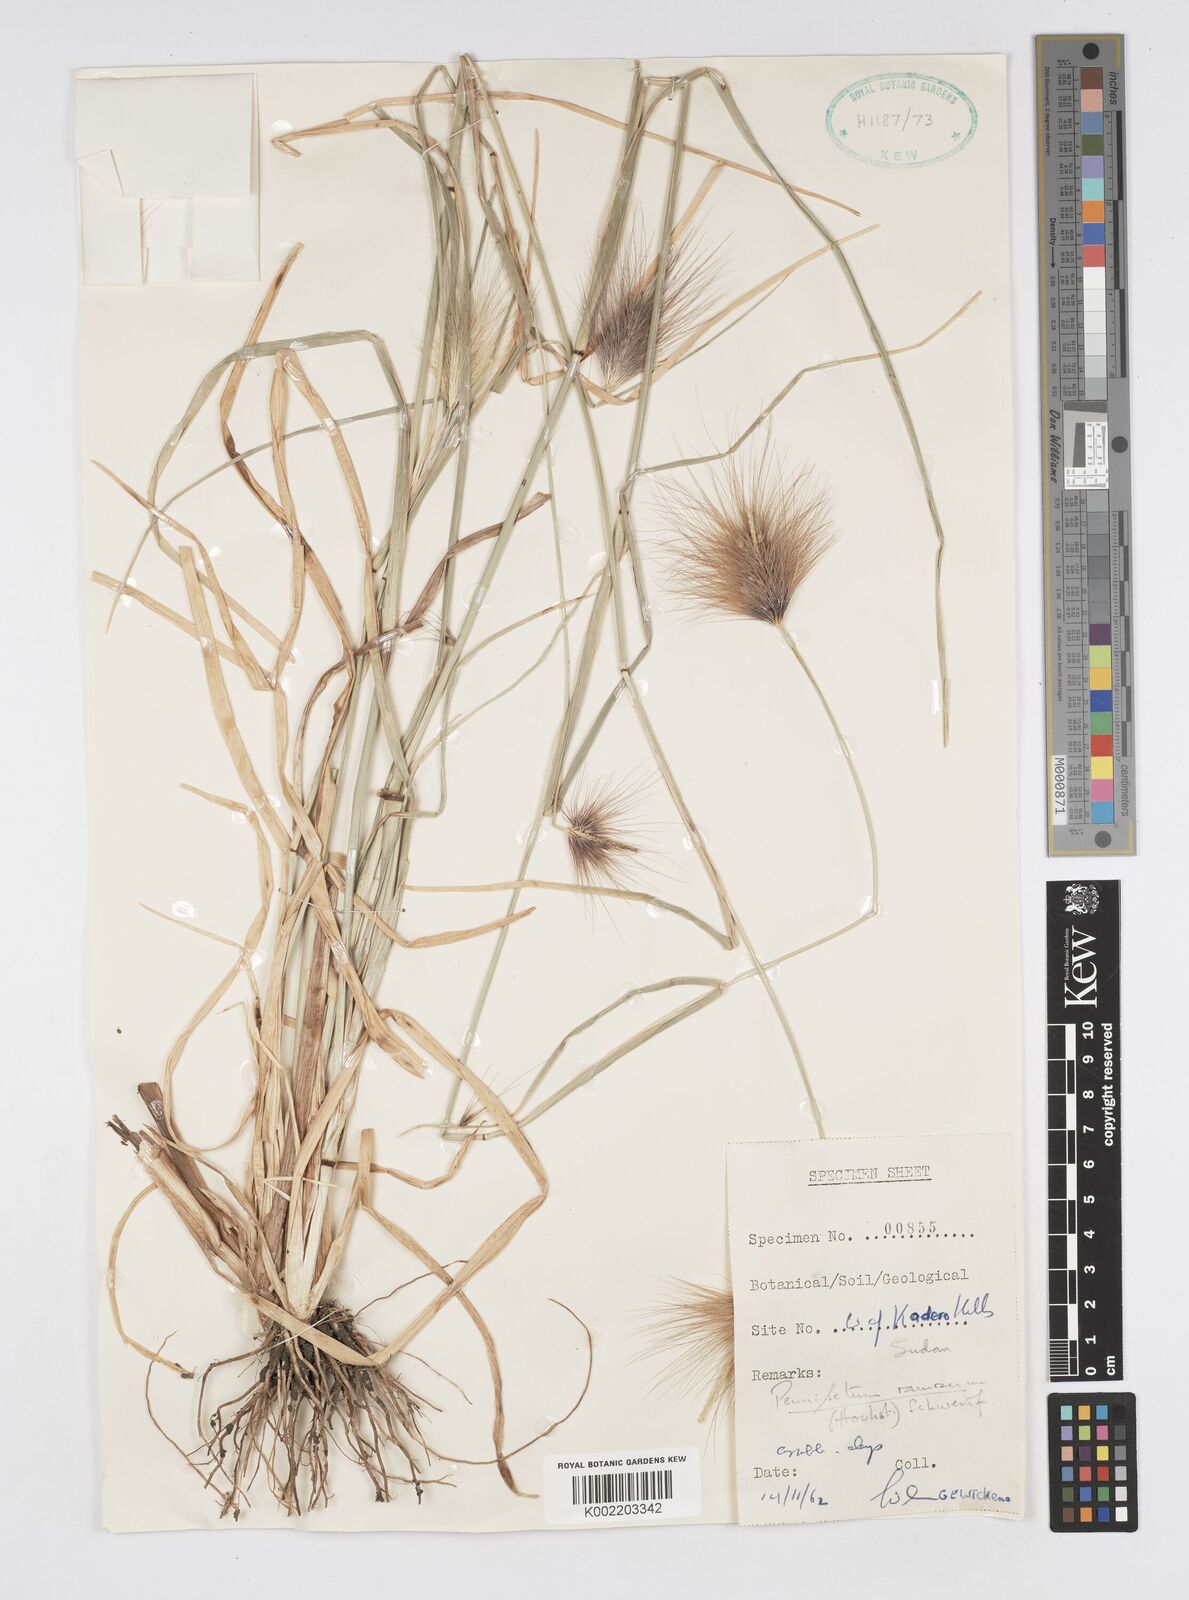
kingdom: Plantae
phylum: Tracheophyta
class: Liliopsida
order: Poales
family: Poaceae
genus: Cenchrus
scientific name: Cenchrus ramosus
